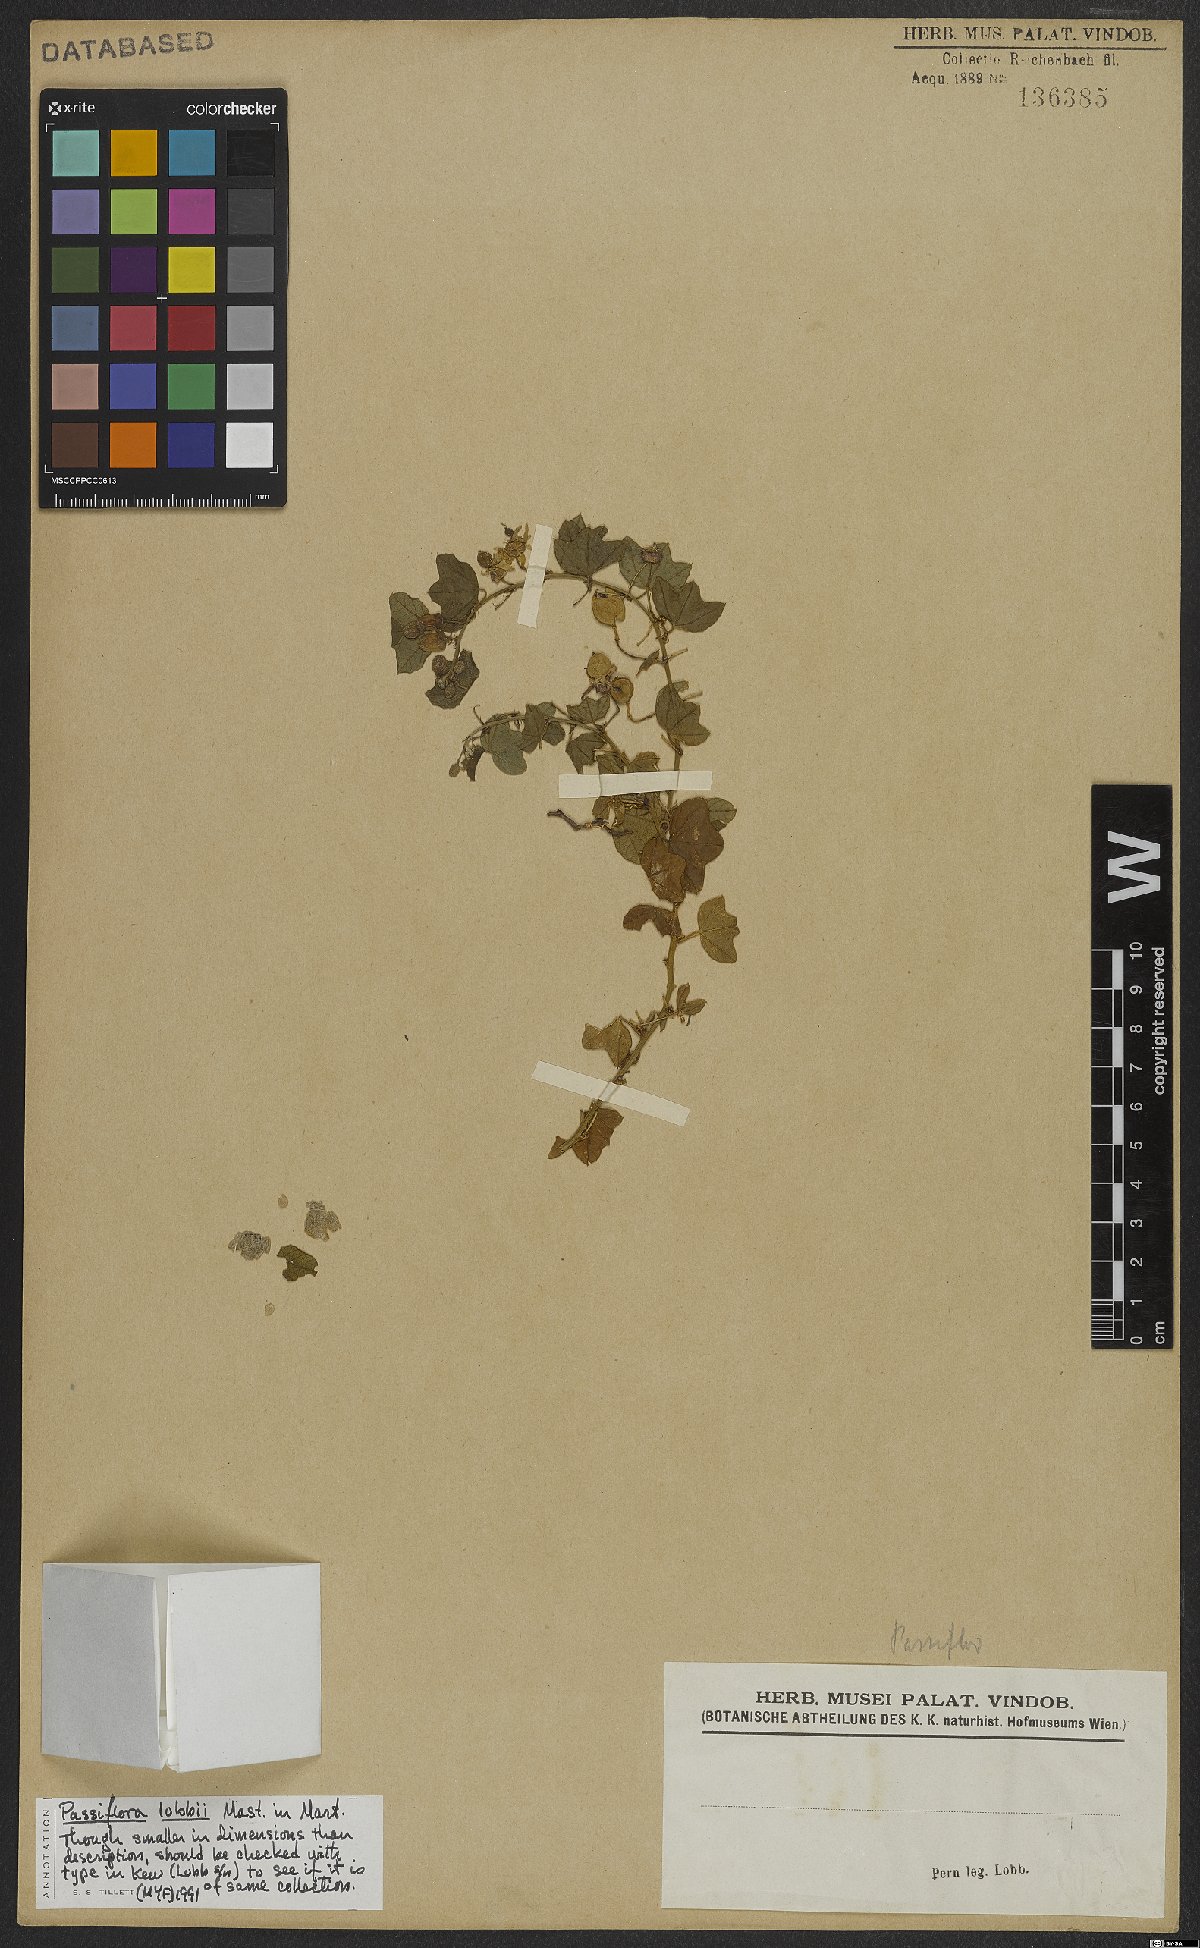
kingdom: Plantae
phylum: Tracheophyta
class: Magnoliopsida
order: Malpighiales
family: Passifloraceae
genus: Passiflora
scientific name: Passiflora lobbii
